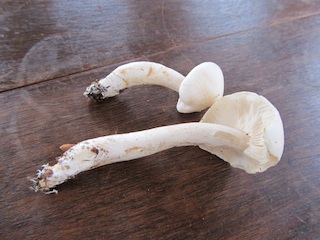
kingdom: Fungi
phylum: Basidiomycota
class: Agaricomycetes
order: Agaricales
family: Tricholomataceae
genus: Tricholoma
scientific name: Tricholoma lascivum
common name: stinkende ridderhat
